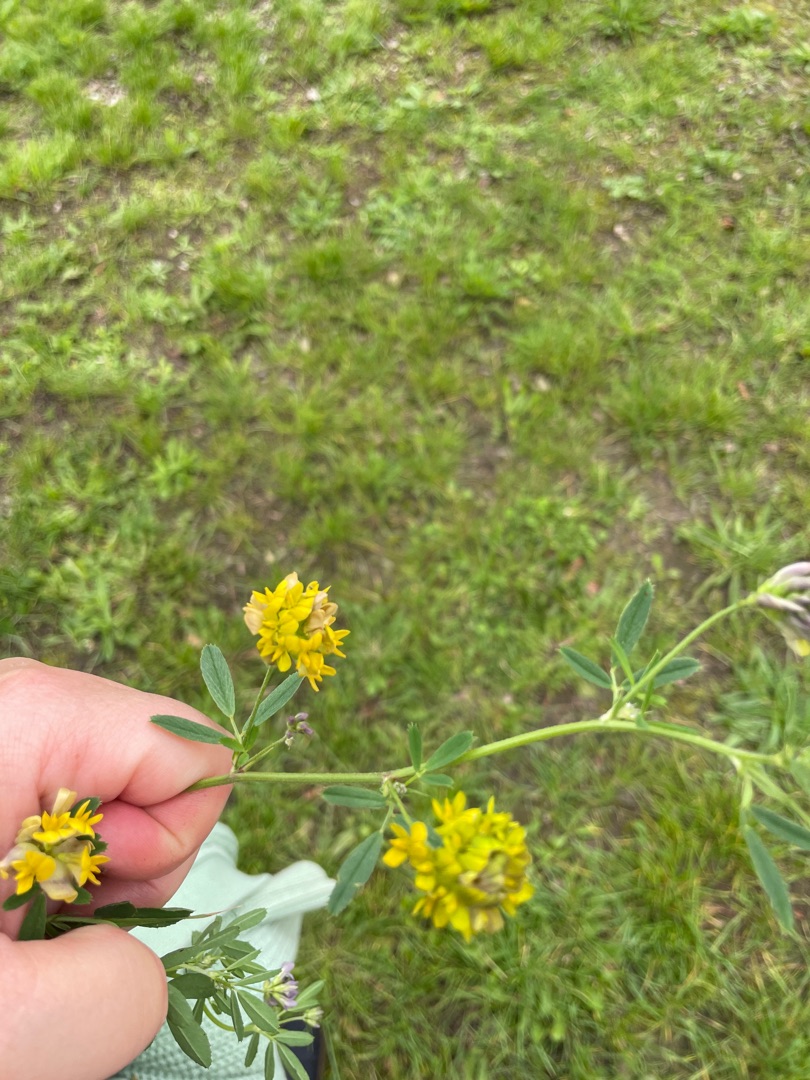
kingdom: Plantae
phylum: Tracheophyta
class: Magnoliopsida
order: Fabales
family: Fabaceae
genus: Medicago
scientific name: Medicago varia
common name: Sand-lucerne
